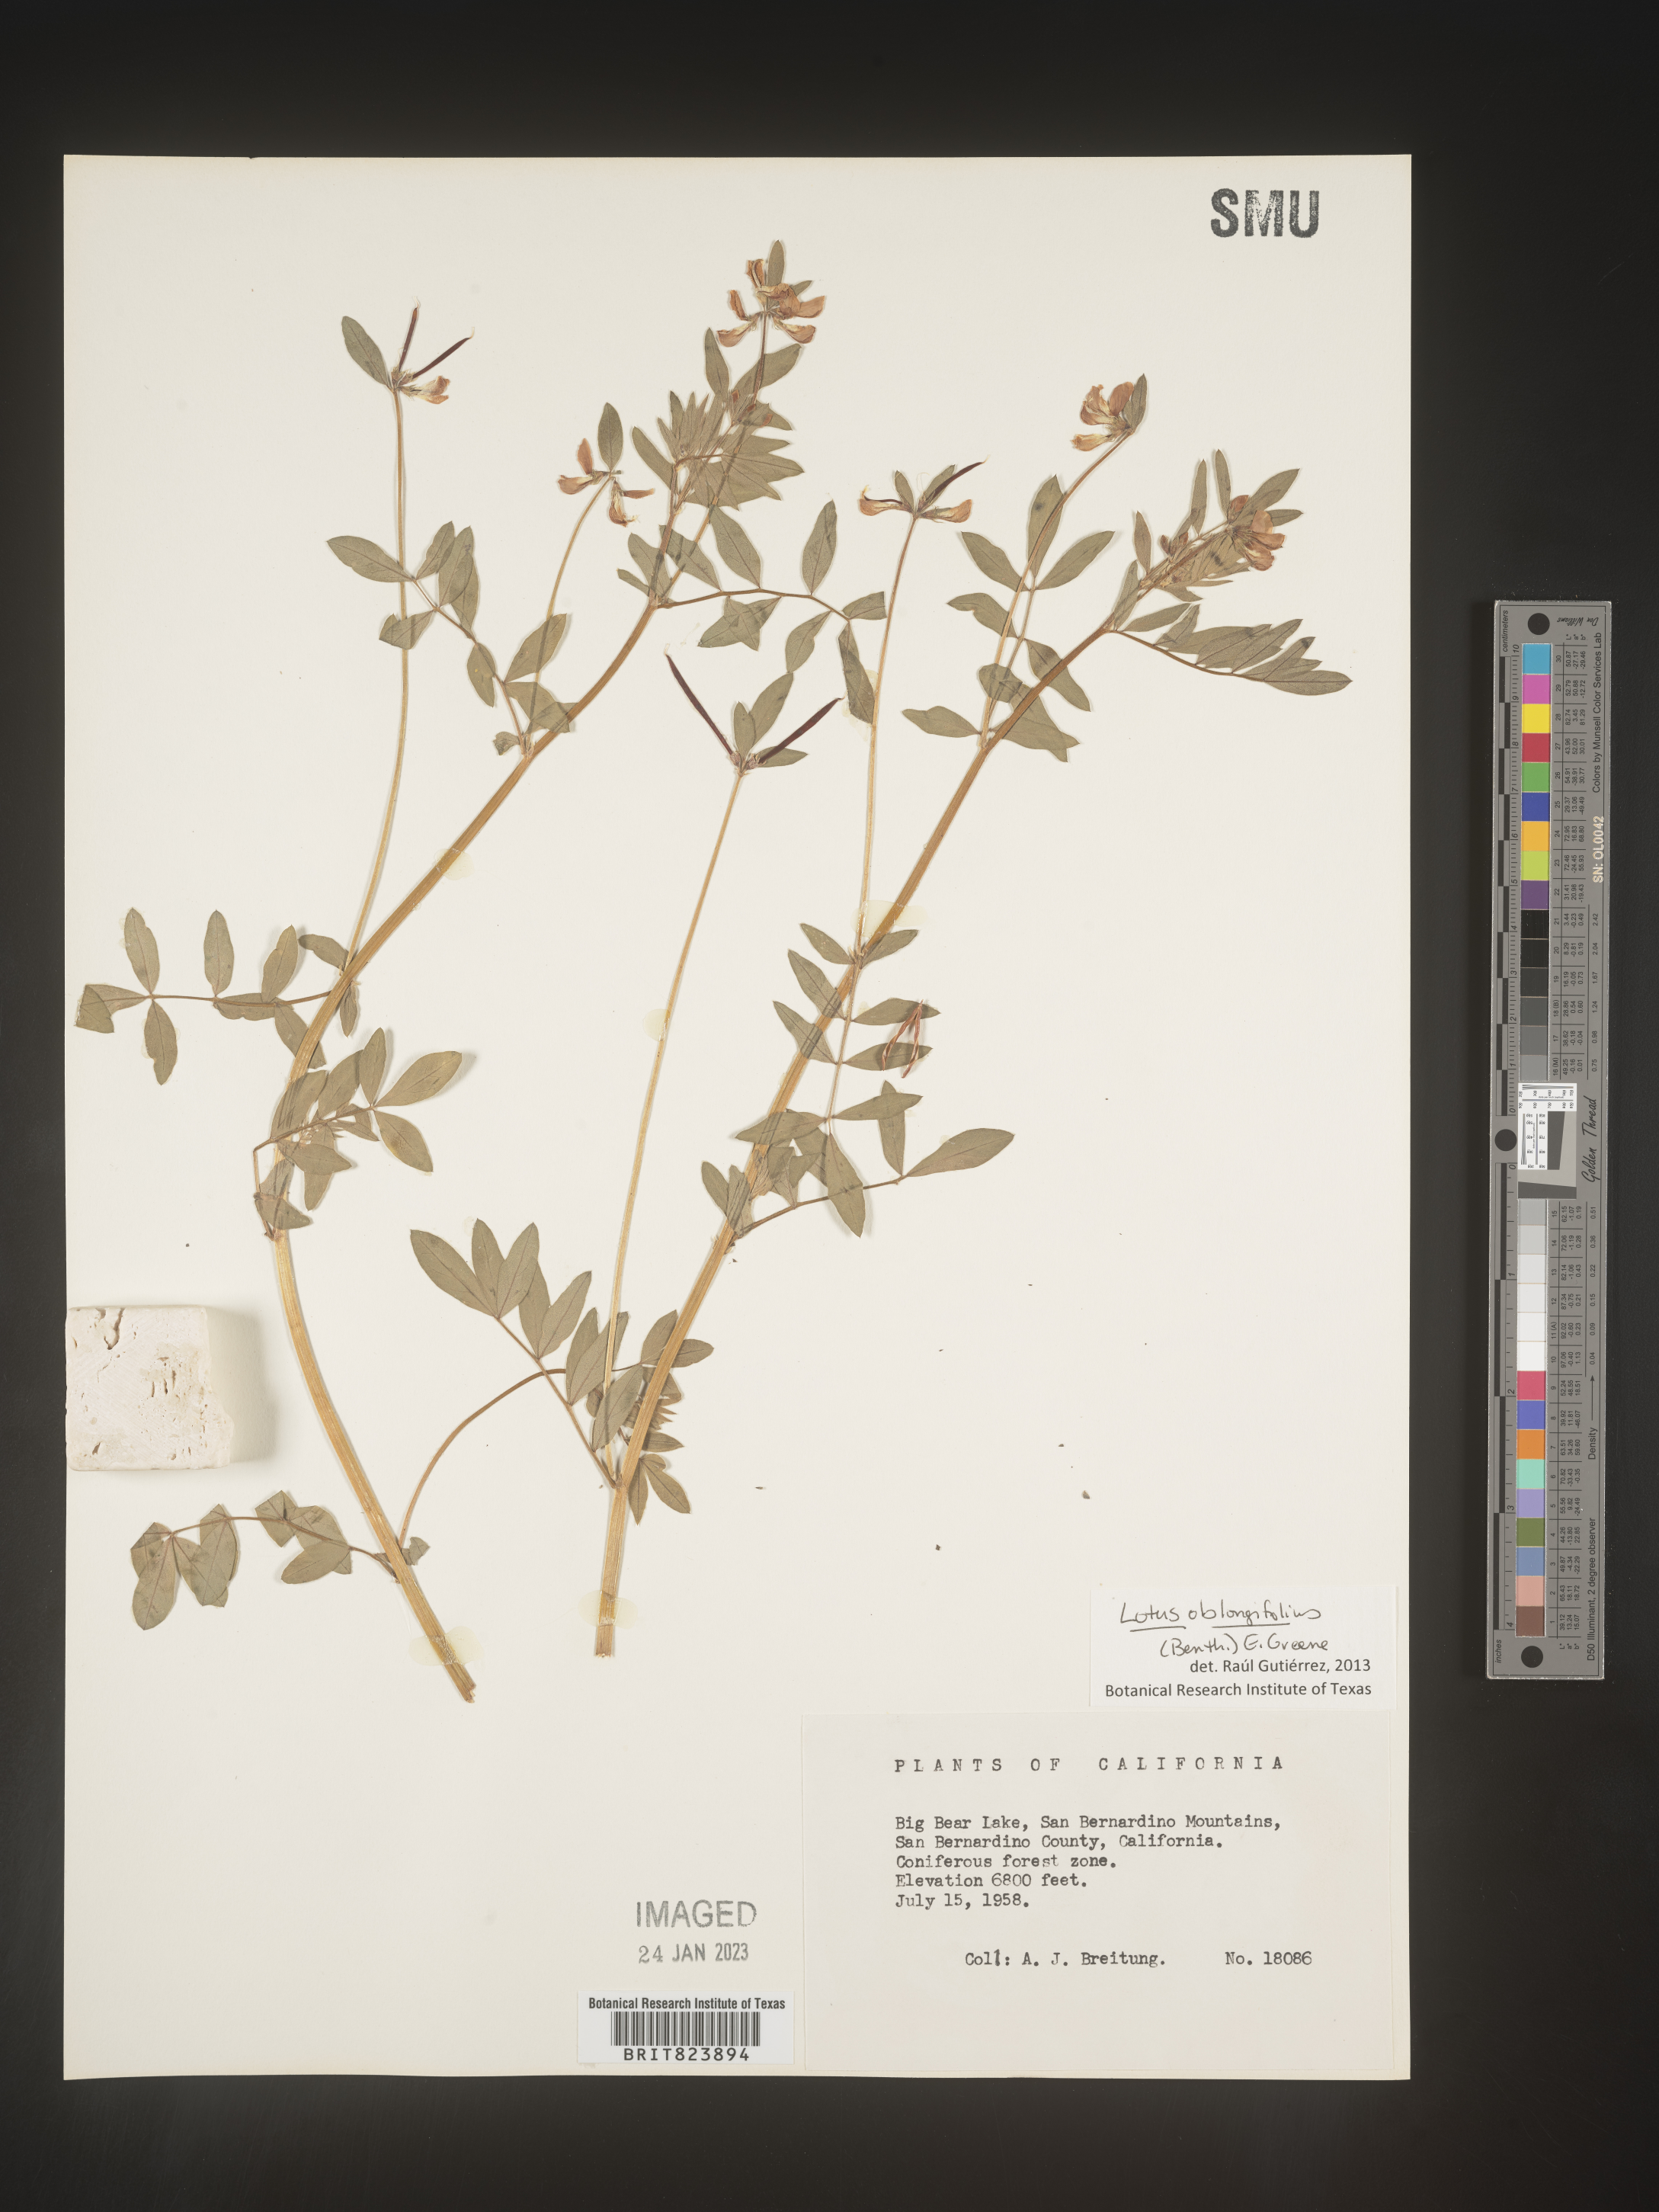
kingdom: Plantae
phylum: Tracheophyta
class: Magnoliopsida
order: Fabales
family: Fabaceae
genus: Lotus
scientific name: Lotus
